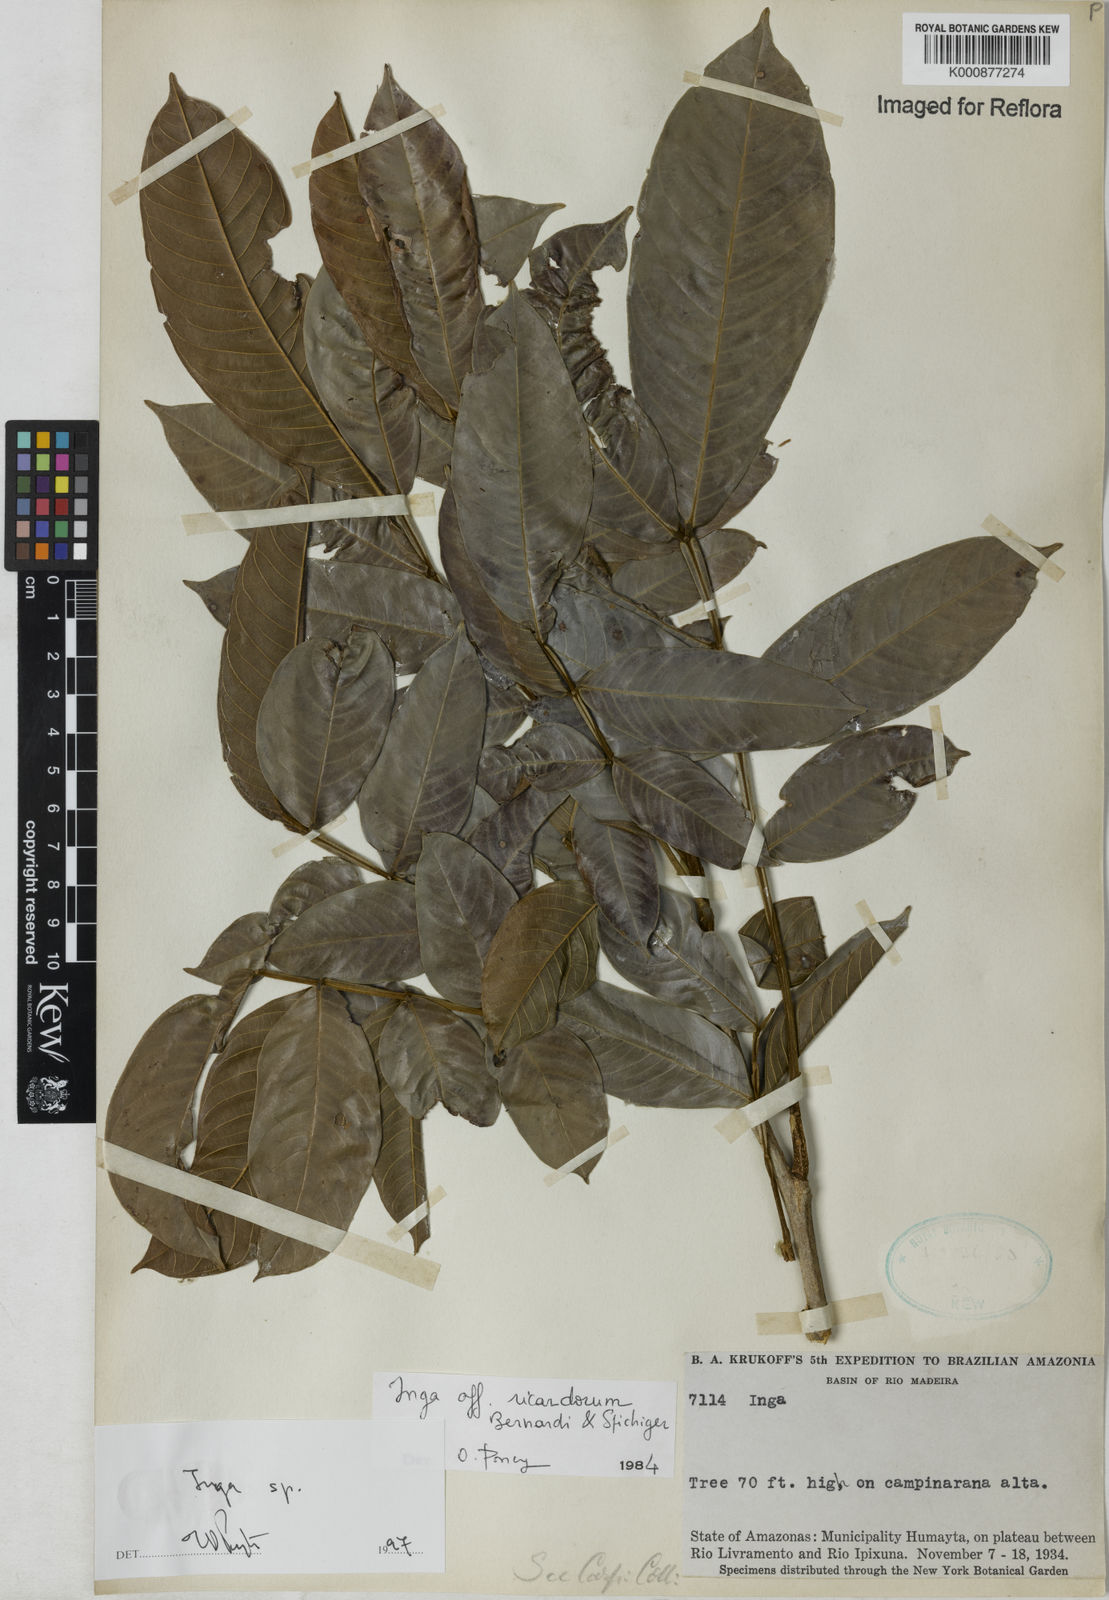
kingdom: Plantae
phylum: Tracheophyta
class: Magnoliopsida
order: Fabales
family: Fabaceae
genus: Inga
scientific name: Inga
